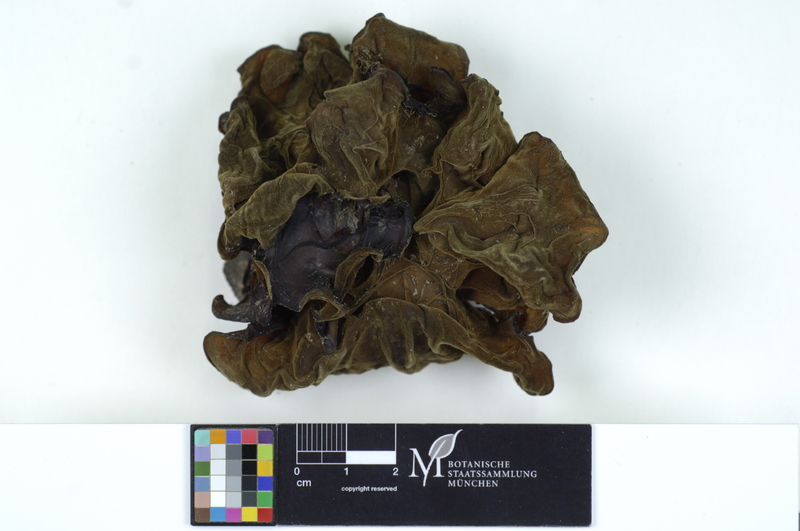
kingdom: Fungi
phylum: Basidiomycota
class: Agaricomycetes
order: Auriculariales
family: Auriculariaceae
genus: Auricularia
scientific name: Auricularia auricula-judae
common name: Jelly ear
